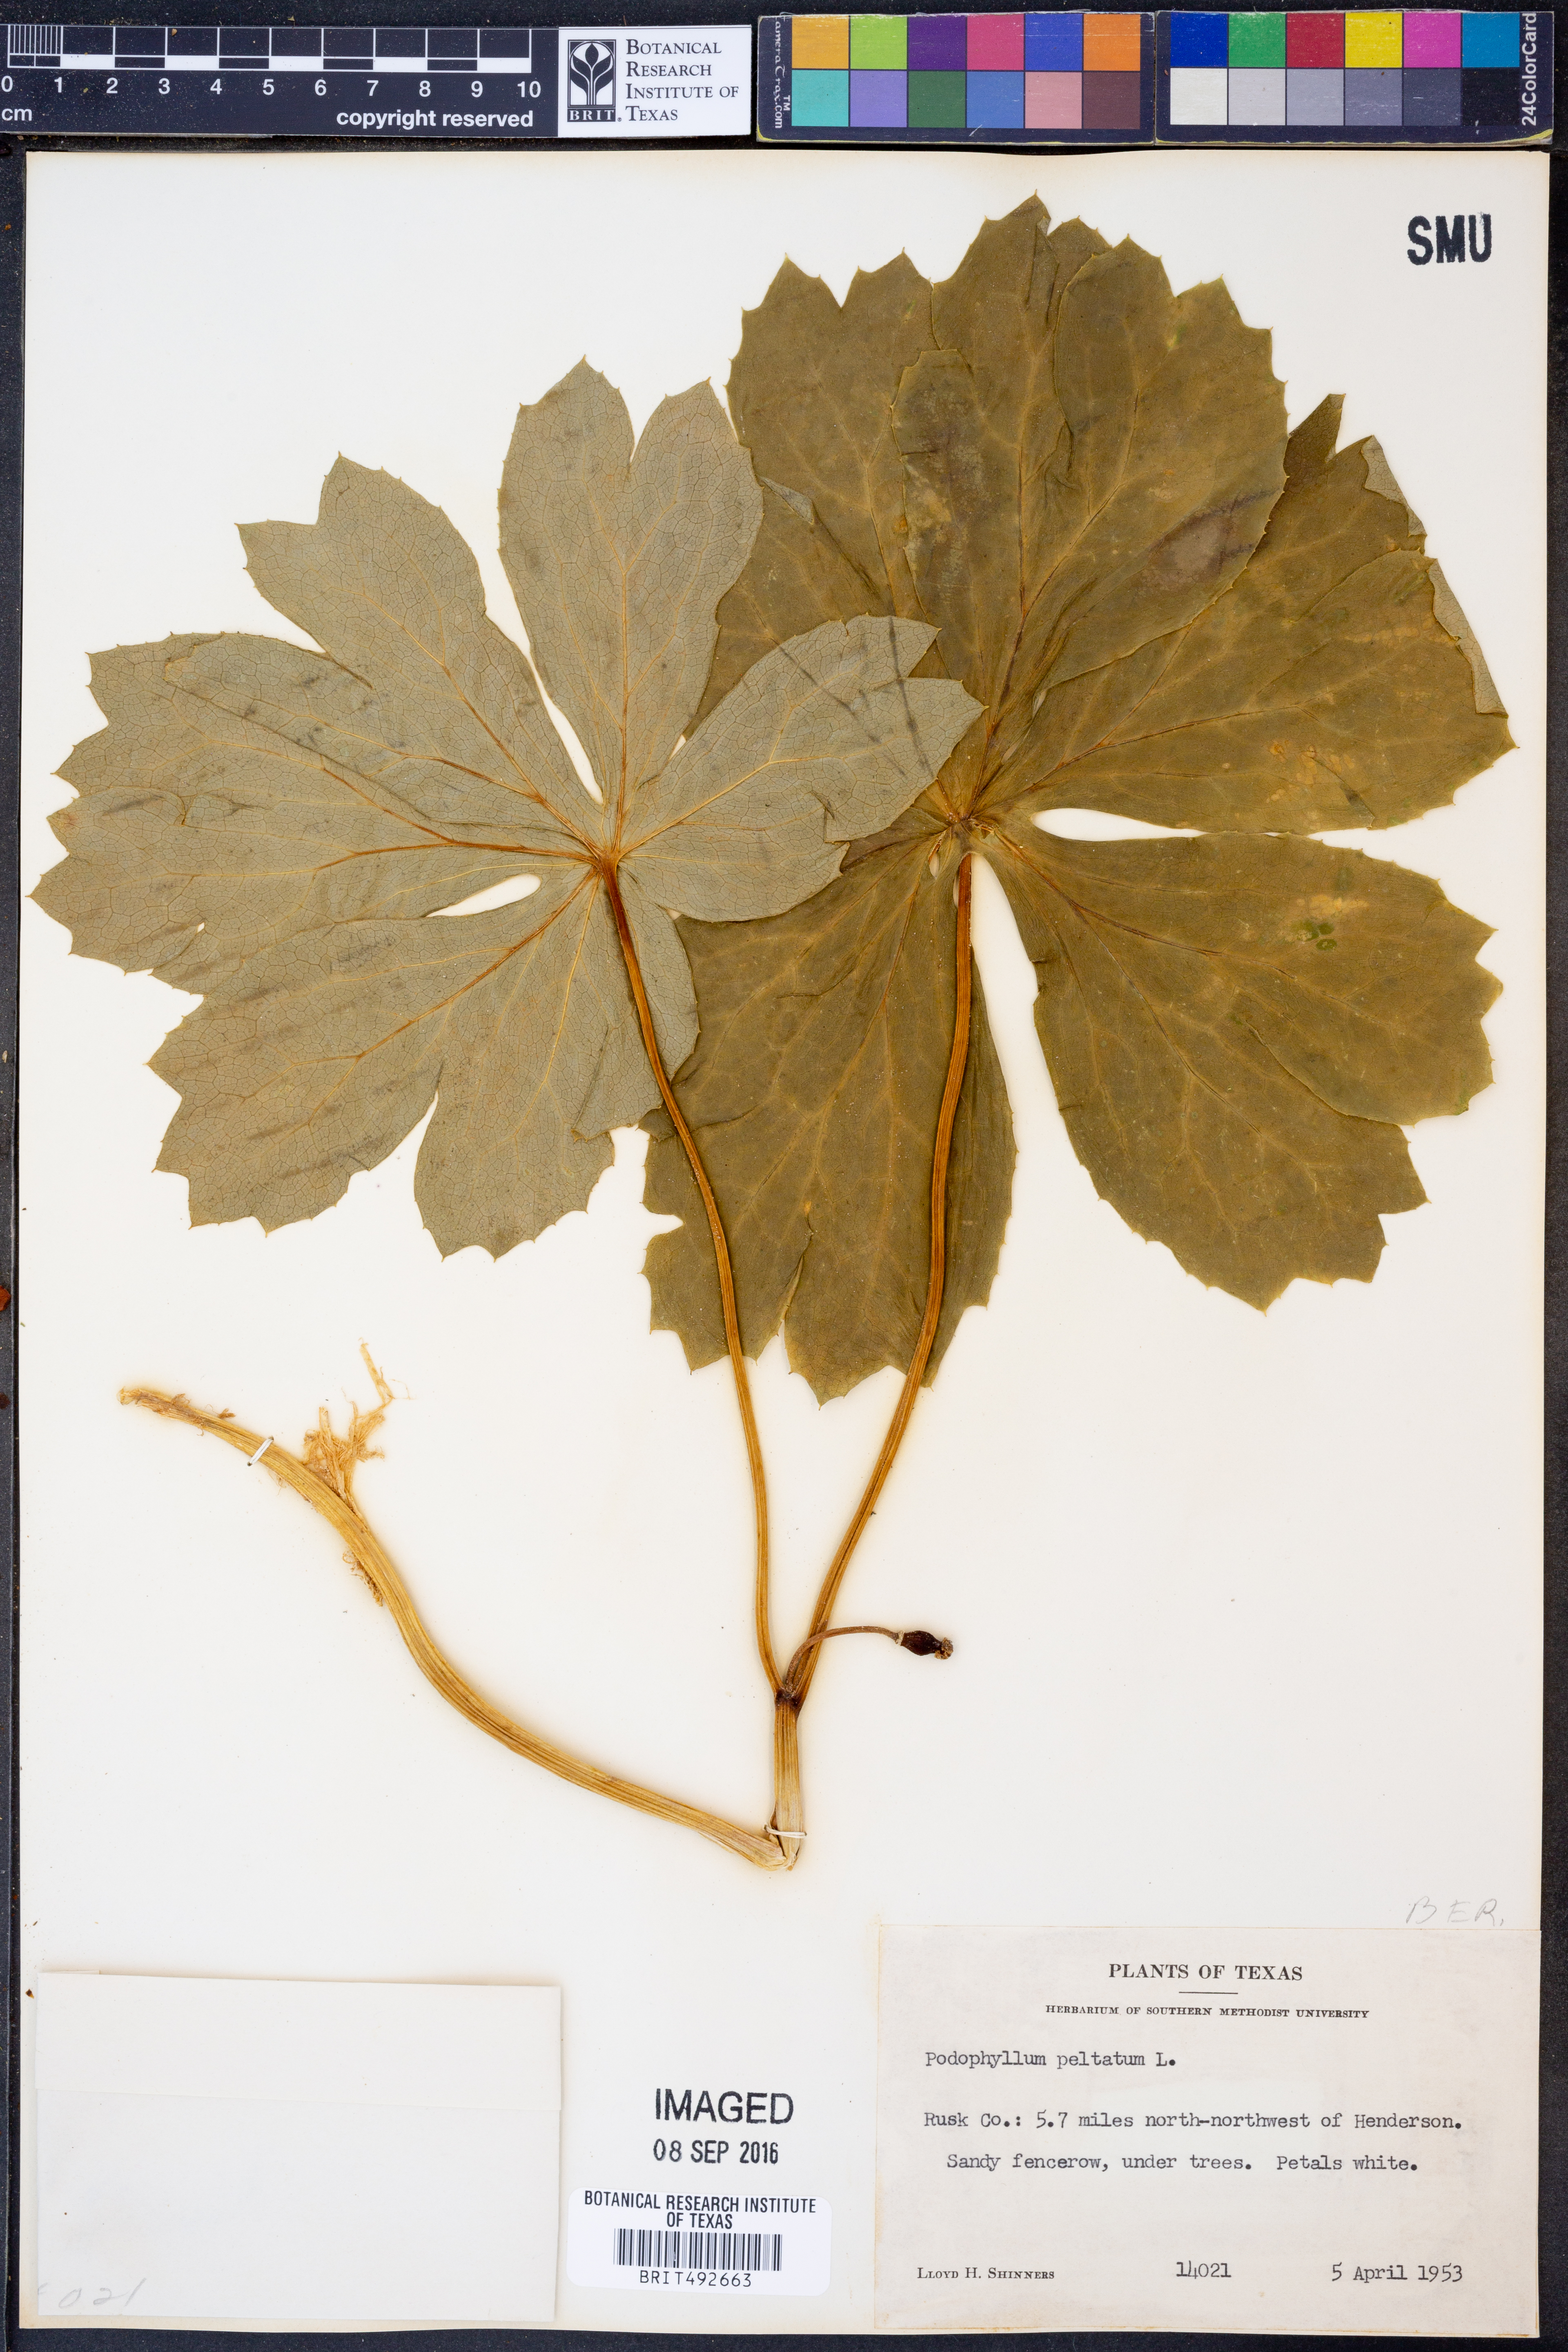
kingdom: Plantae
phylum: Tracheophyta
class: Magnoliopsida
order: Ranunculales
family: Berberidaceae
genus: Podophyllum
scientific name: Podophyllum peltatum
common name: Wild mandrake
